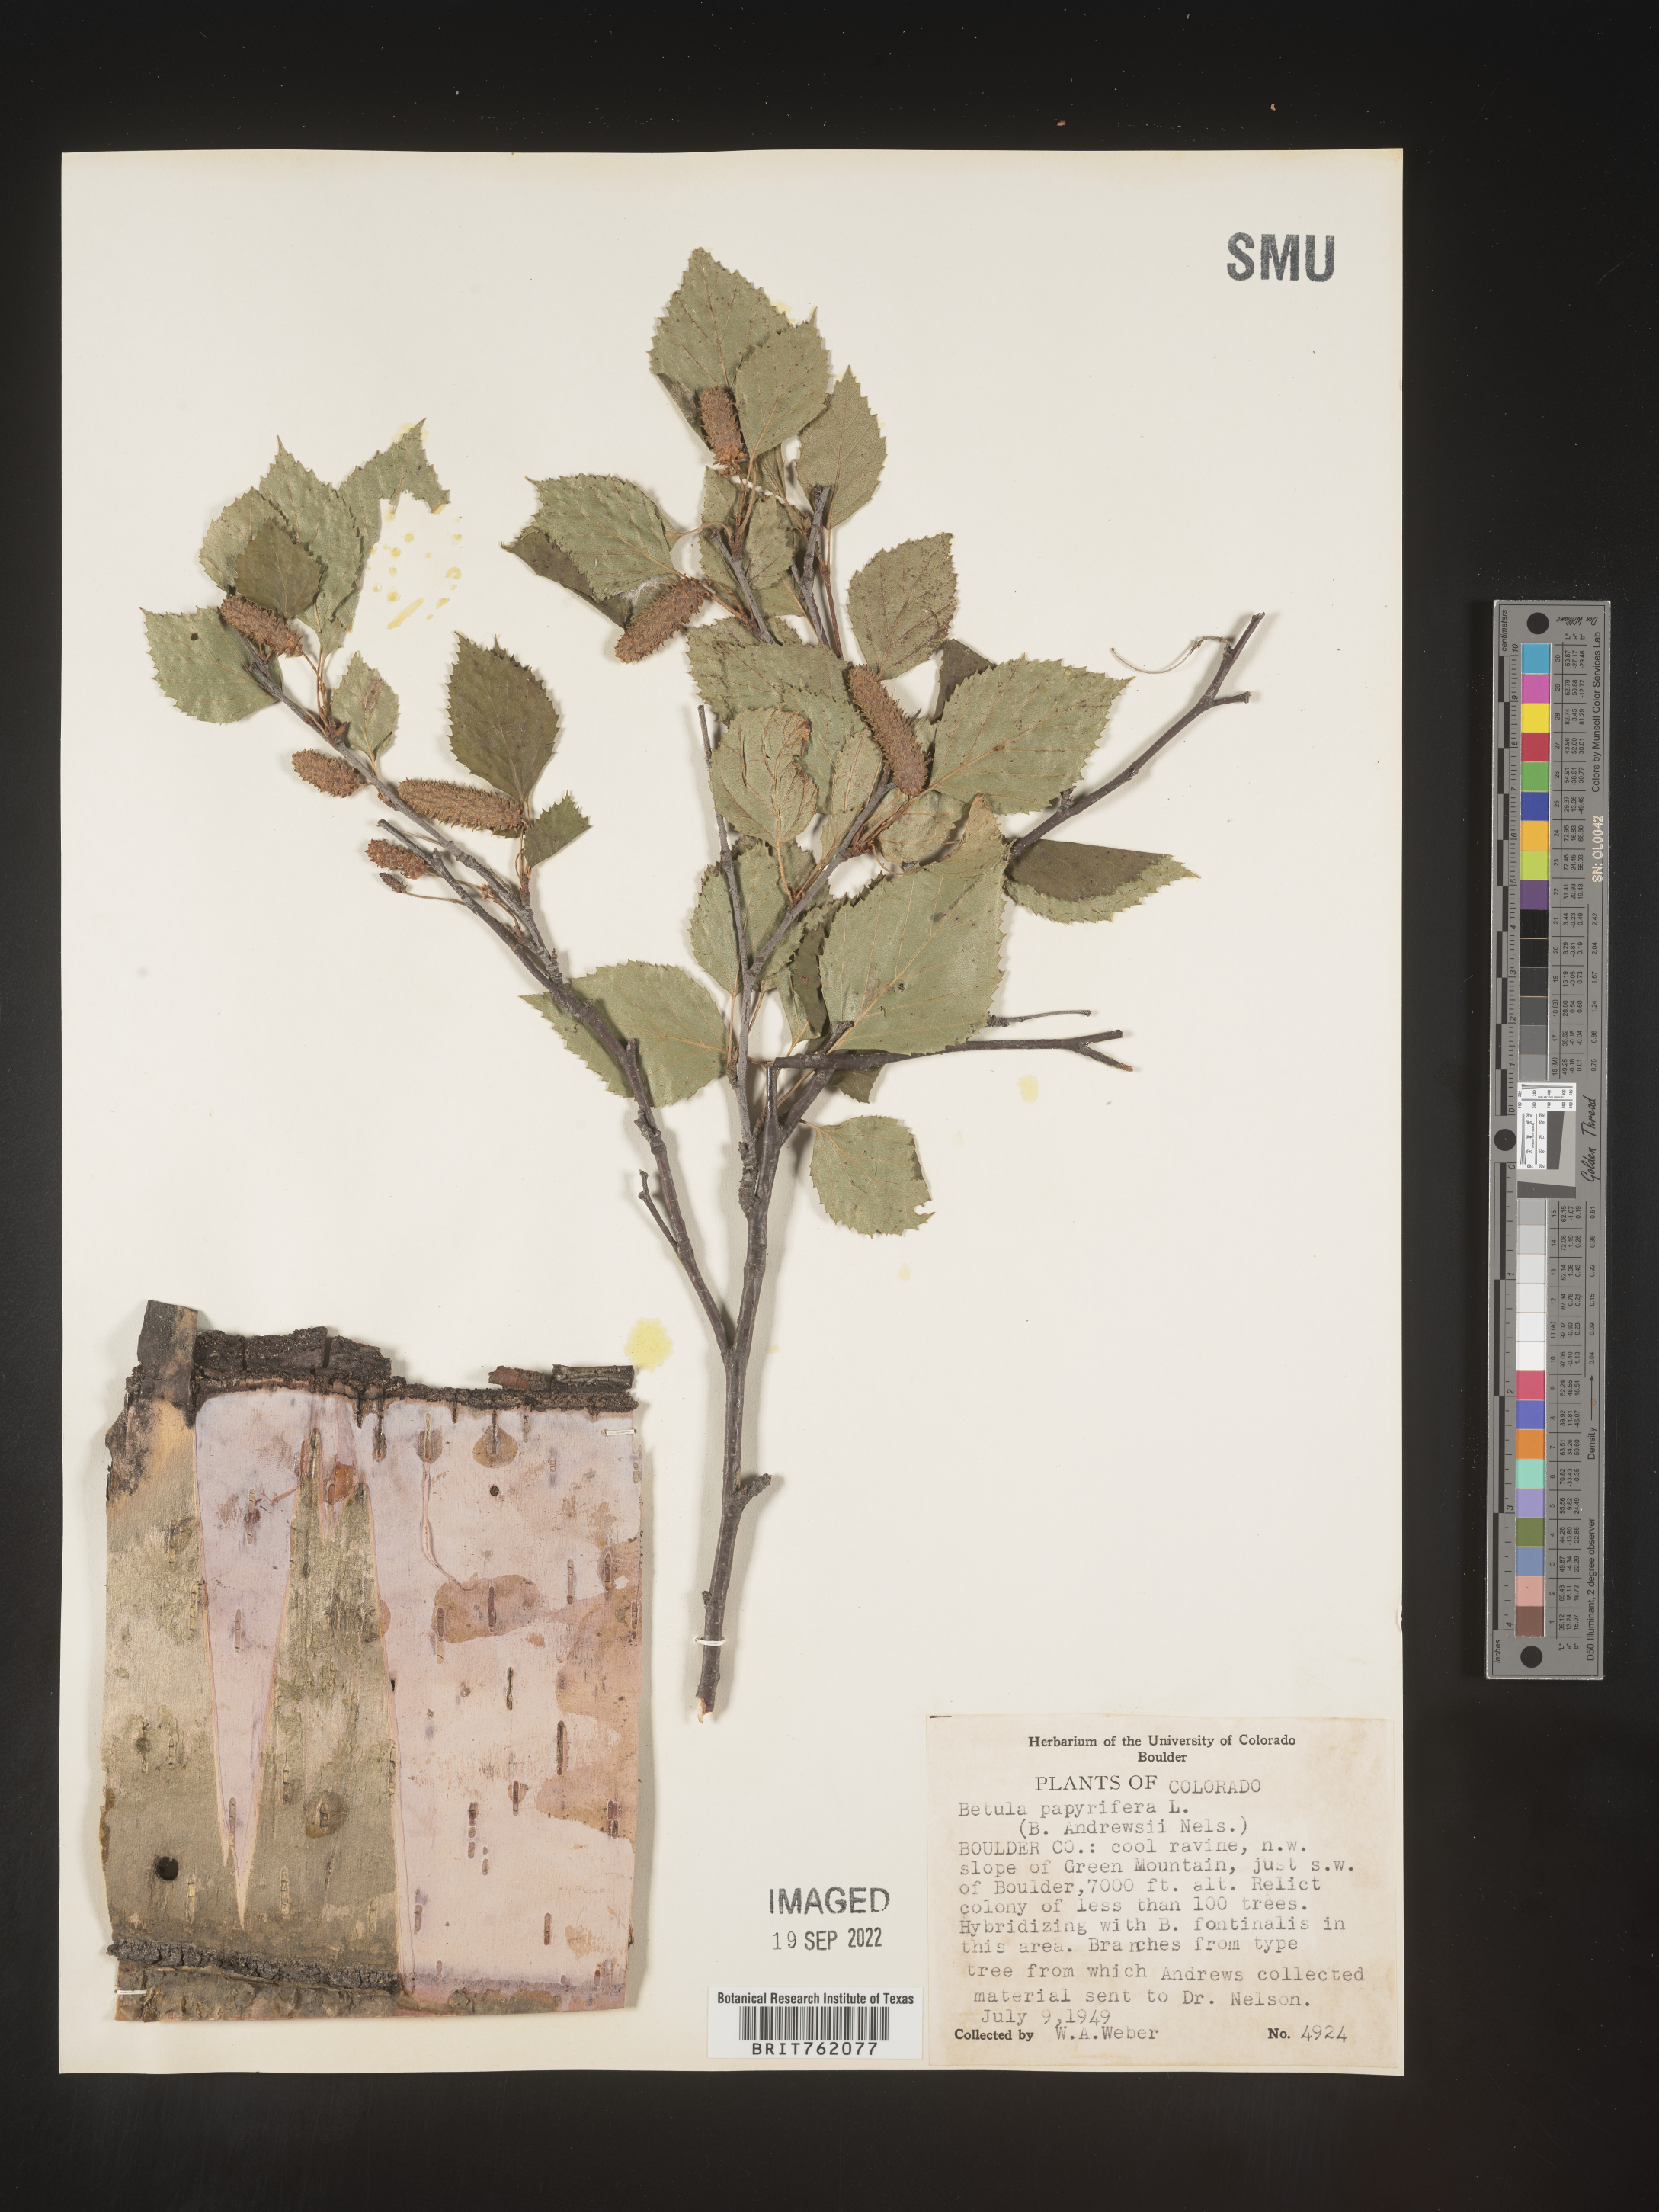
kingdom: Plantae
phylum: Tracheophyta
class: Magnoliopsida
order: Fagales
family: Betulaceae
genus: Betula
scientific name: Betula papyrifera
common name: Paper birch
